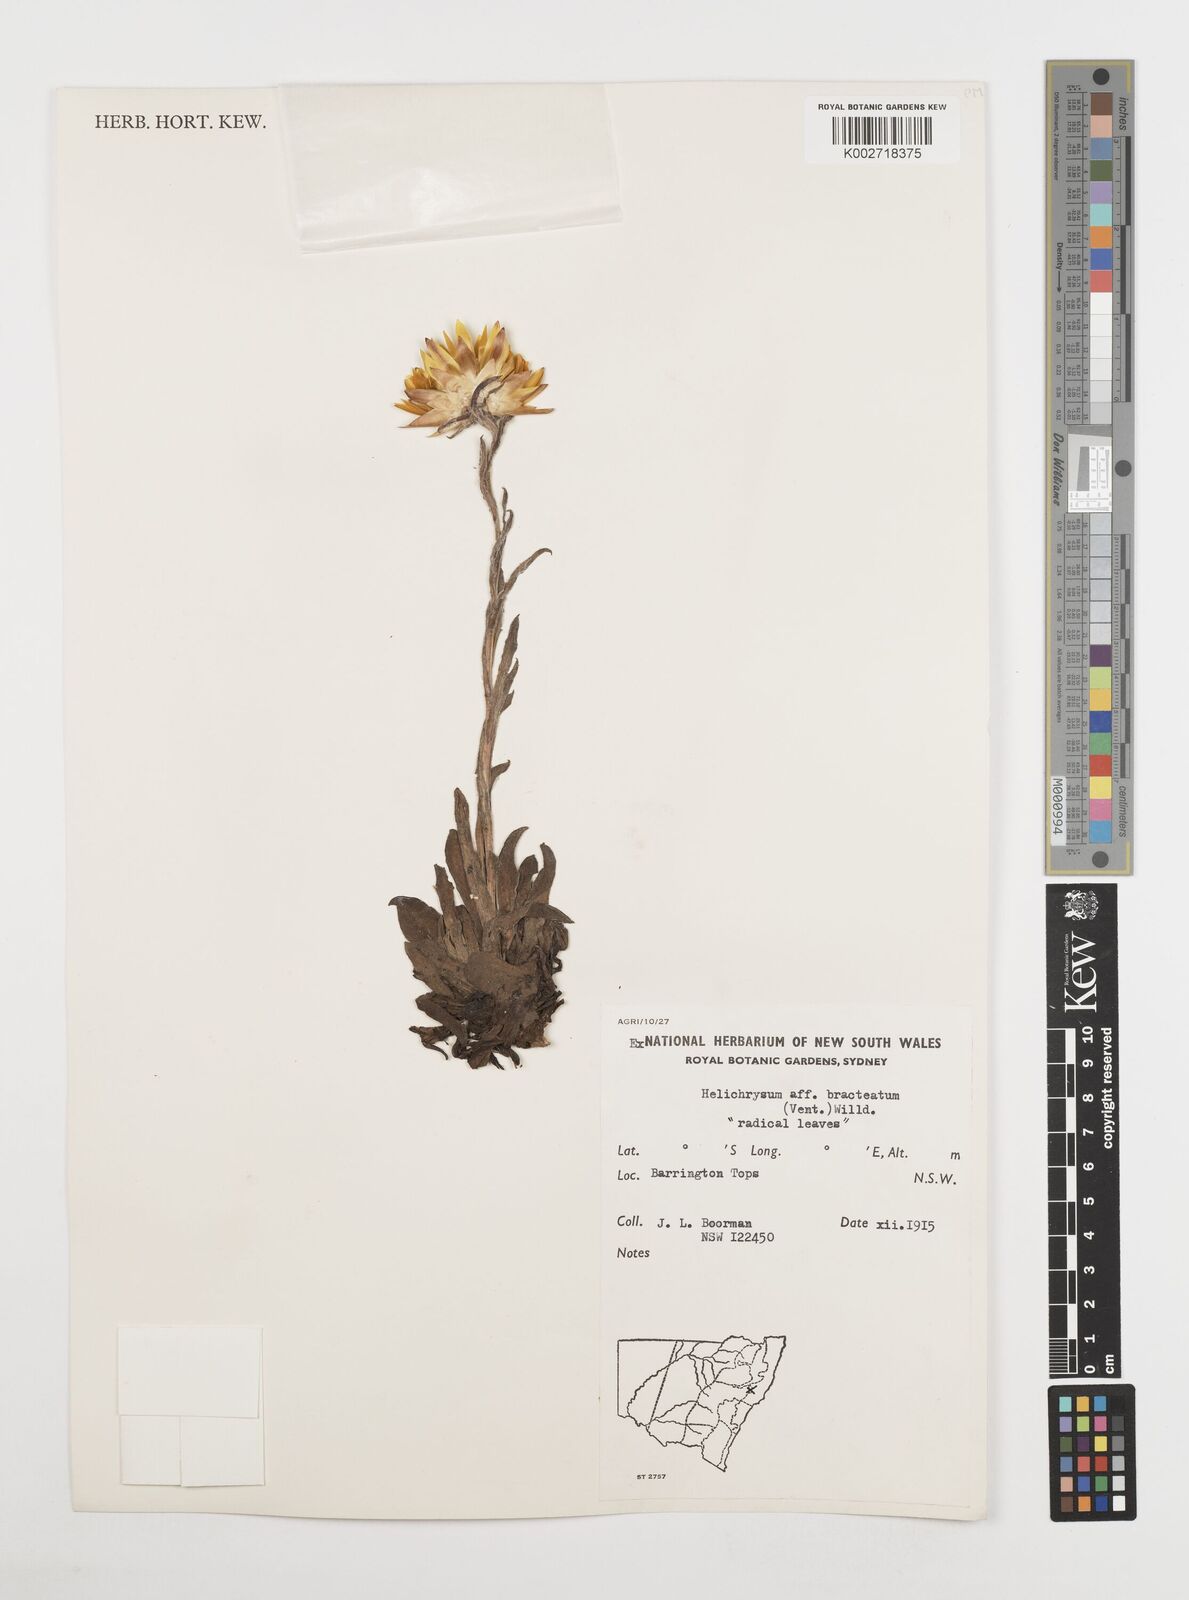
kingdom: Plantae
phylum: Tracheophyta
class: Magnoliopsida
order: Asterales
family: Asteraceae
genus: Xerochrysum
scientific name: Xerochrysum bracteatum
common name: Bracted strawflower
